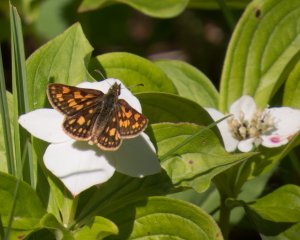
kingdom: Animalia
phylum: Arthropoda
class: Insecta
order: Lepidoptera
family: Hesperiidae
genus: Carterocephalus
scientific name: Carterocephalus palaemon
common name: Chequered Skipper
